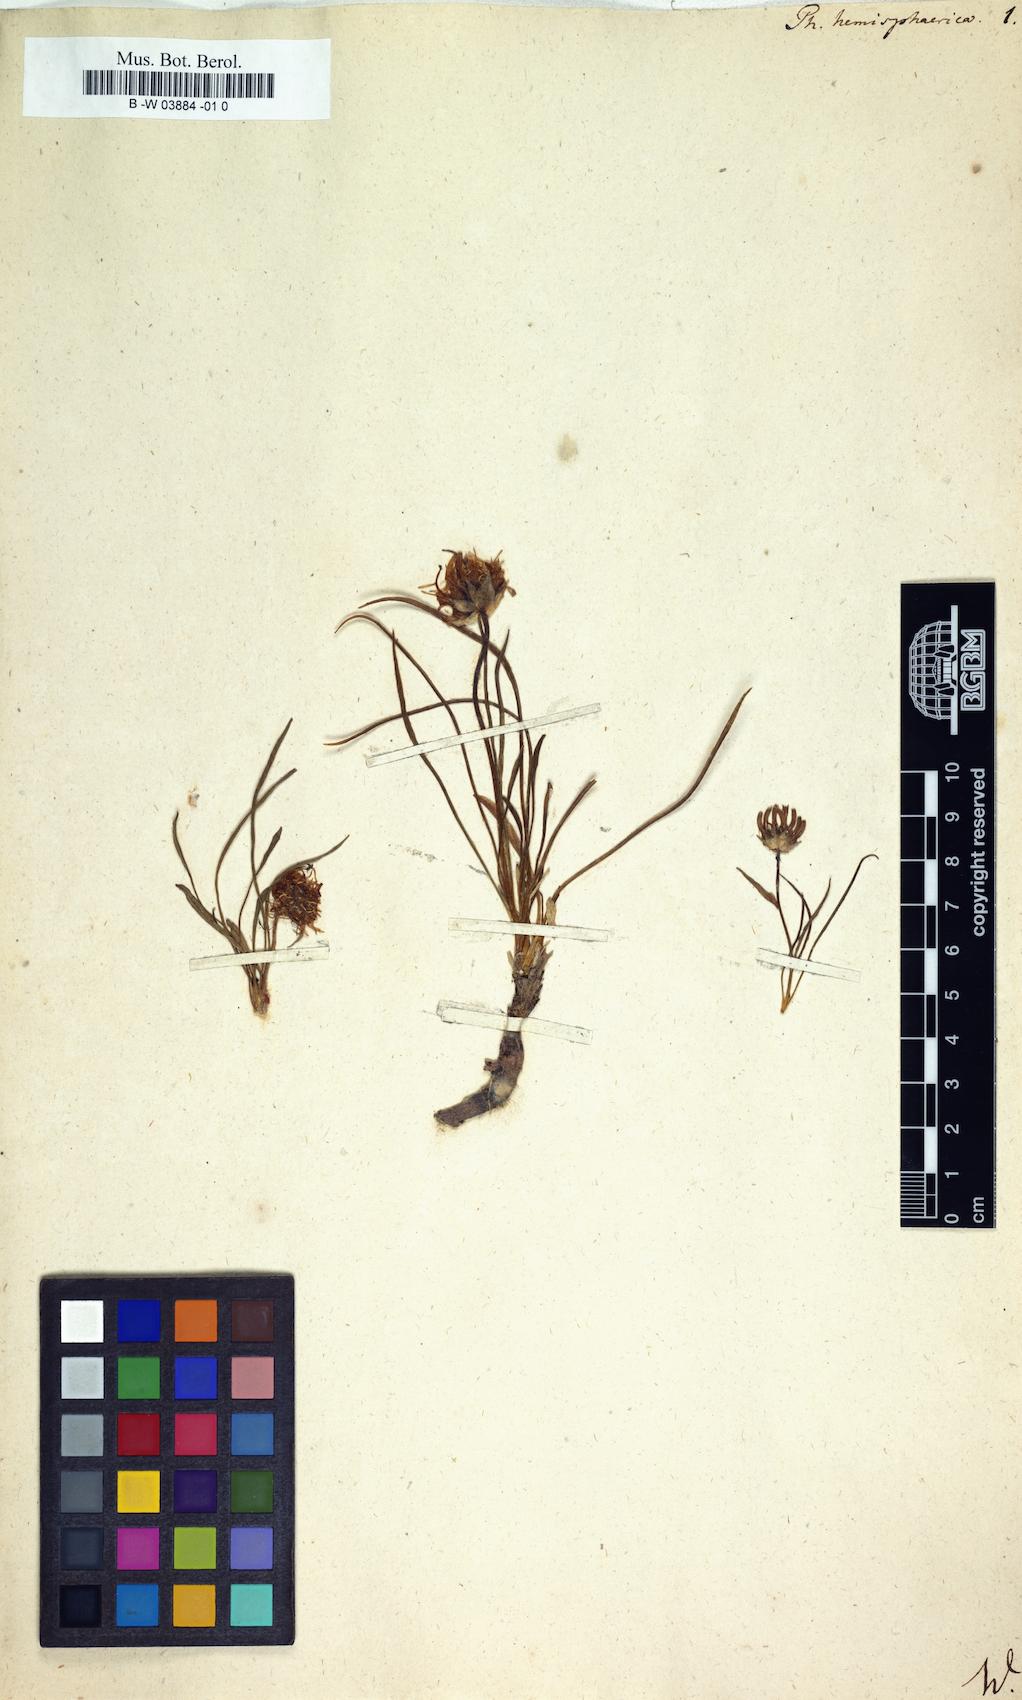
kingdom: Plantae
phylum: Tracheophyta
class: Magnoliopsida
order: Asterales
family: Campanulaceae
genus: Phyteuma
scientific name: Phyteuma hemisphaericum
